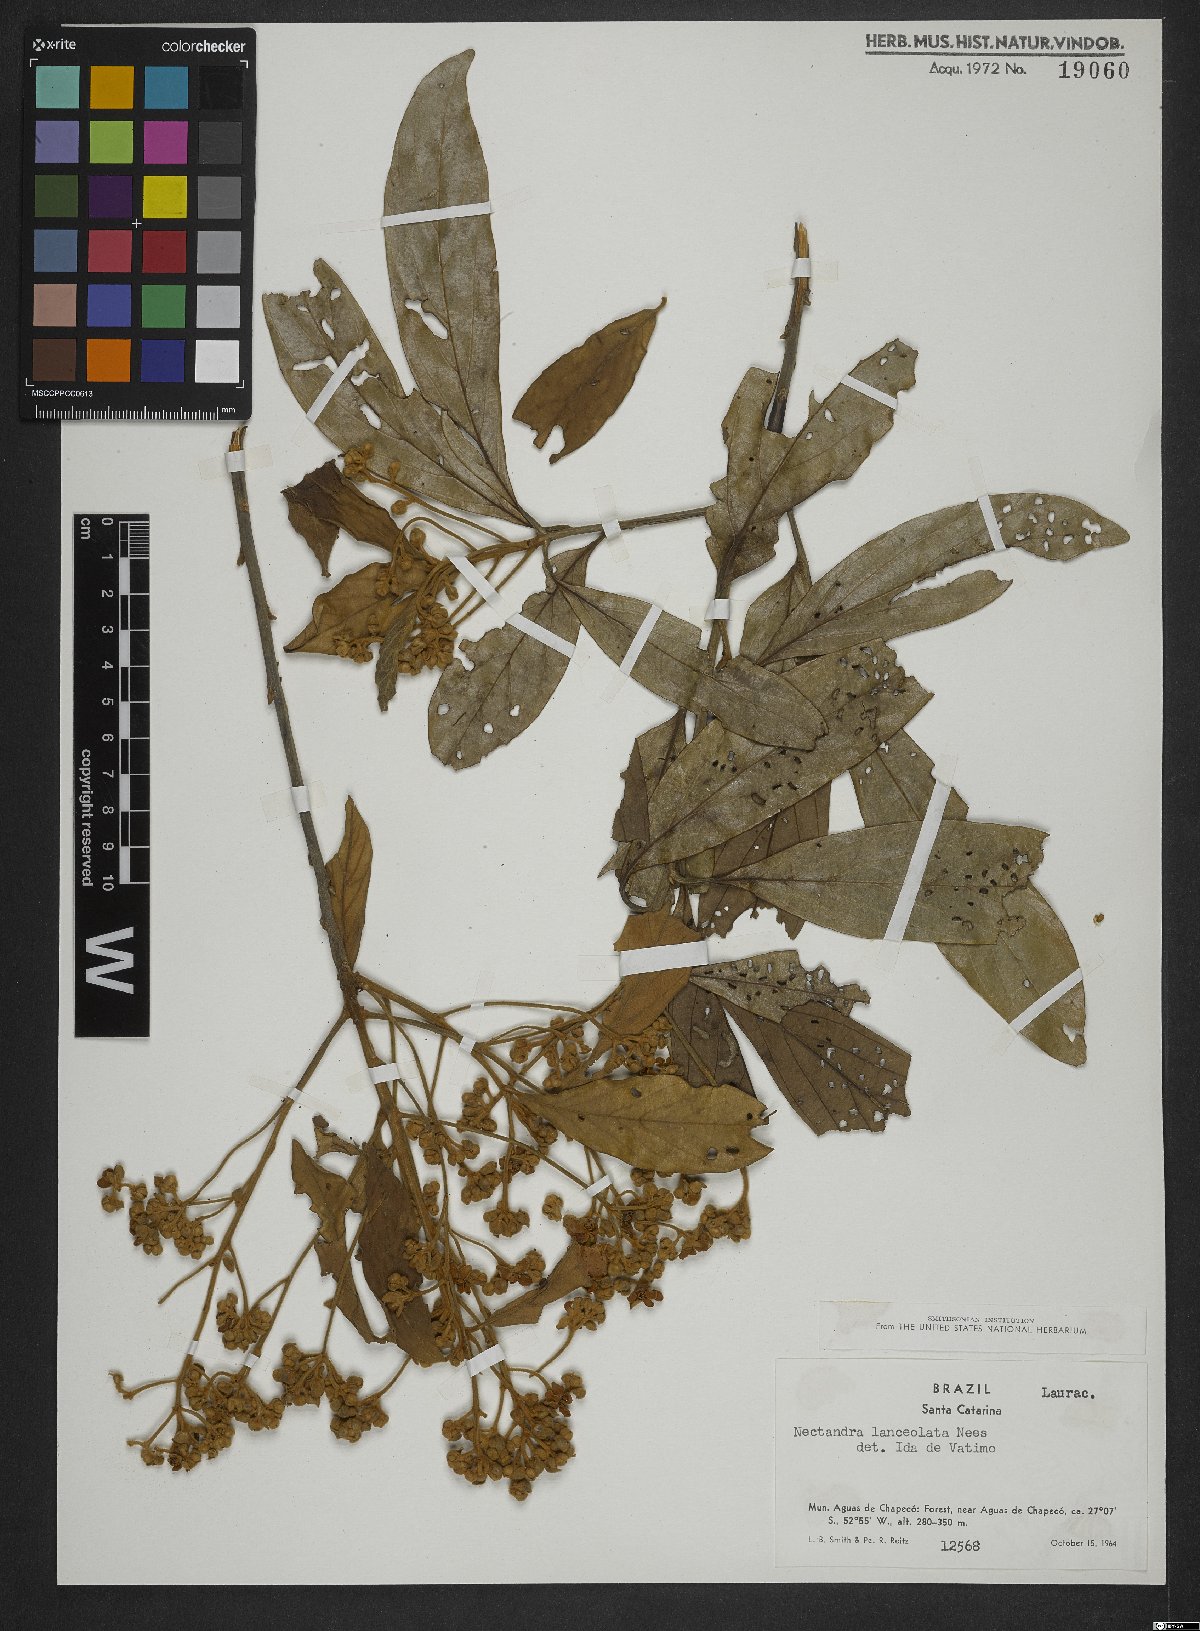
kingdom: Plantae
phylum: Tracheophyta
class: Magnoliopsida
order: Laurales
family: Lauraceae
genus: Nectandra
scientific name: Nectandra lanceolata
